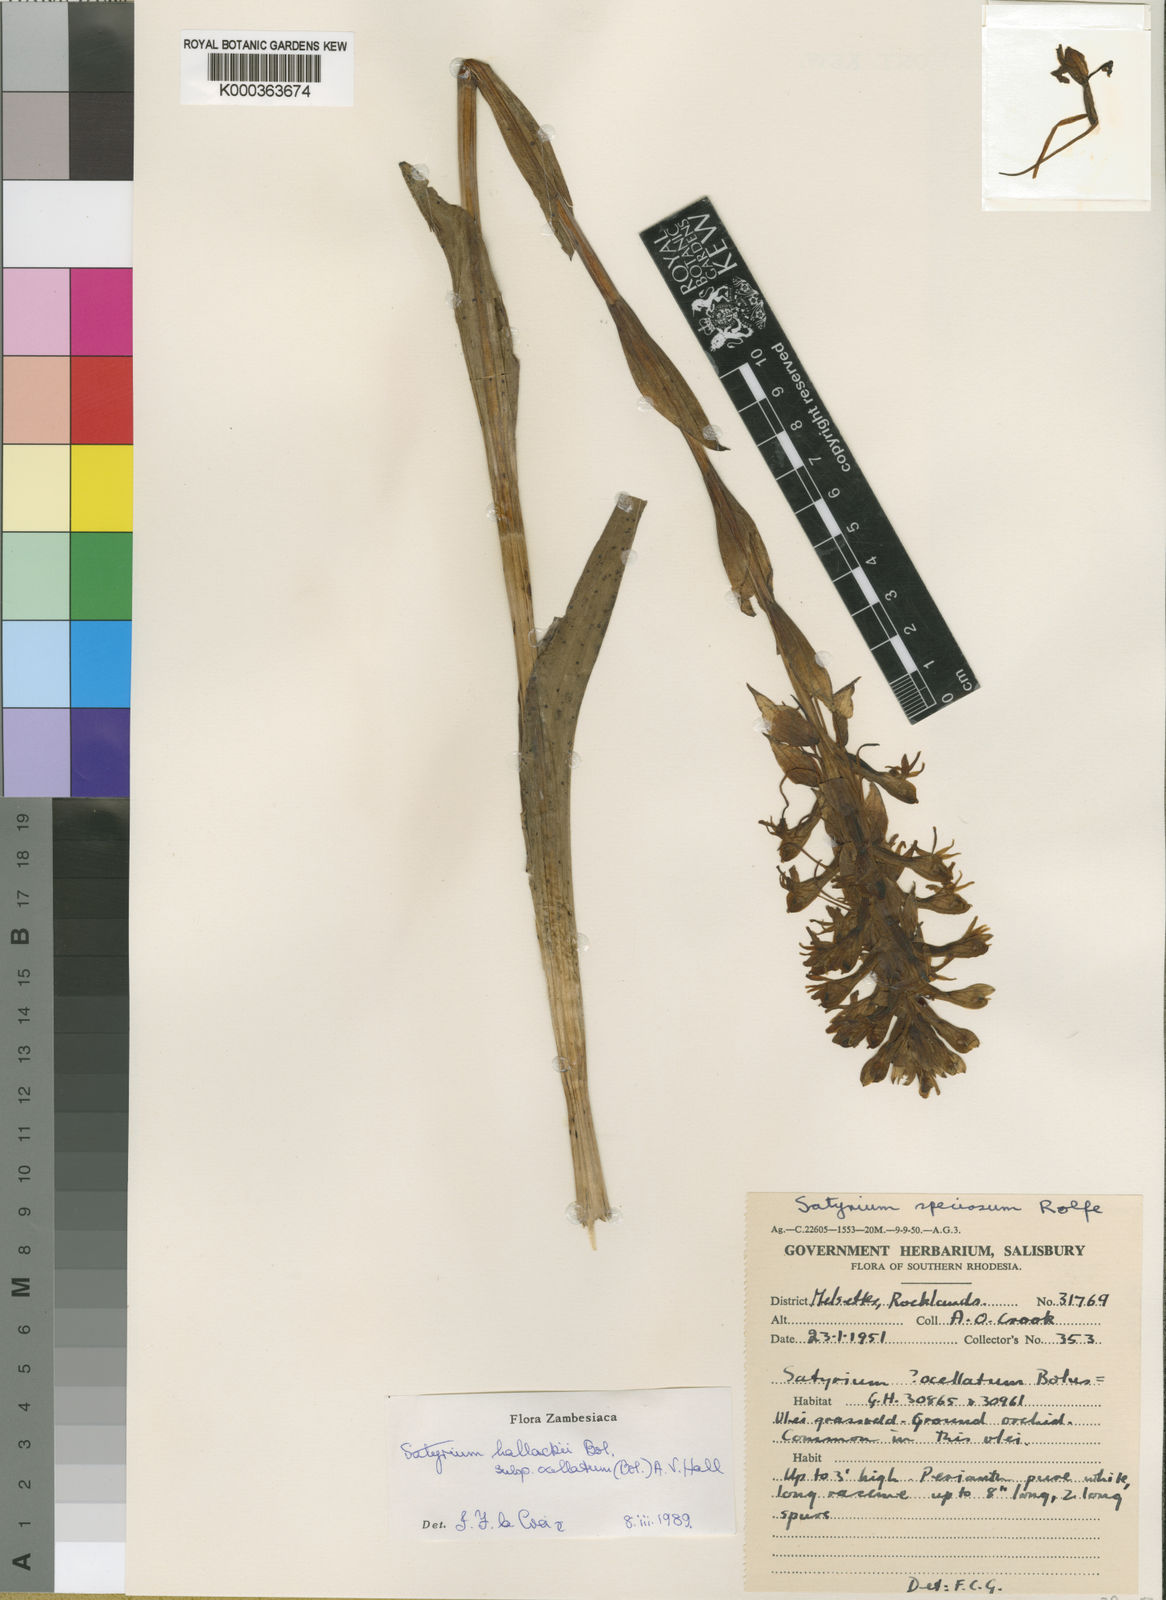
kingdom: Plantae
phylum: Tracheophyta
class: Liliopsida
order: Asparagales
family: Orchidaceae
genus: Satyrium
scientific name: Satyrium hallackii
